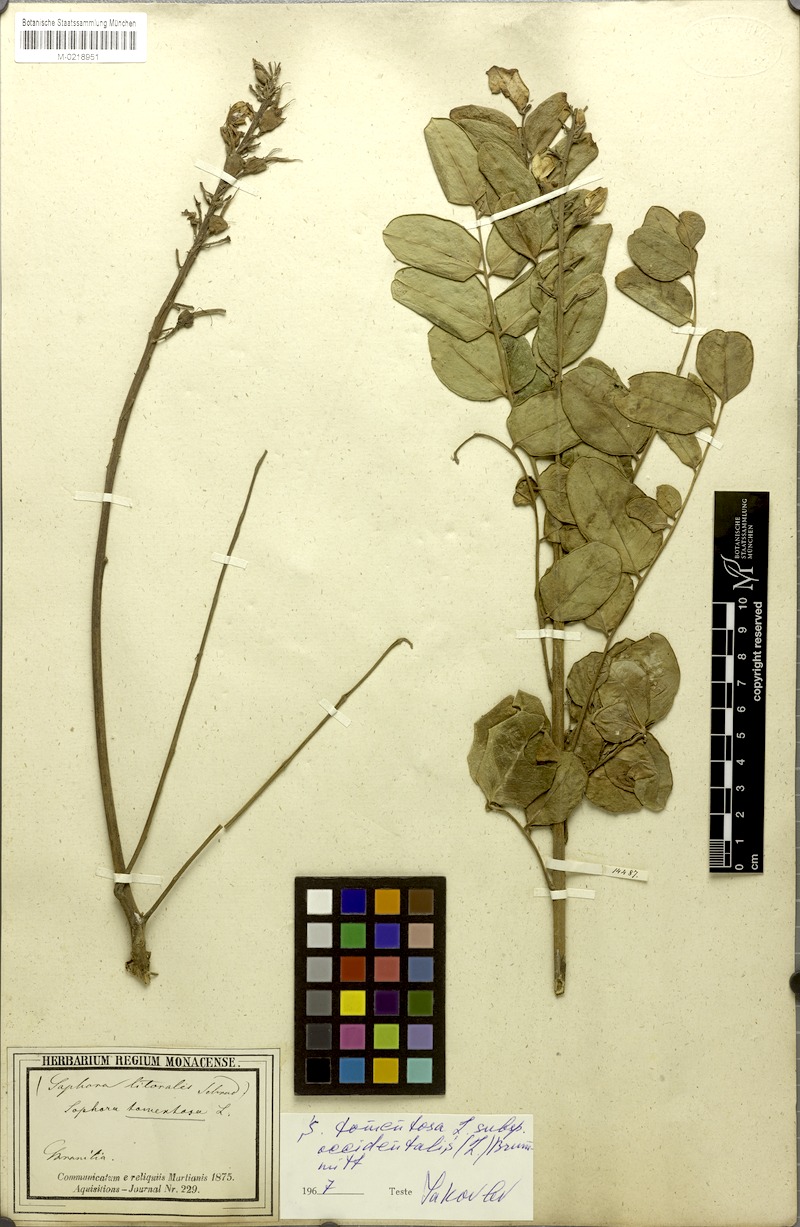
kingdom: Plantae
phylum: Tracheophyta
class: Magnoliopsida
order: Fabales
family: Fabaceae
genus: Sophora
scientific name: Sophora tomentosa
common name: Yellow necklacepod
